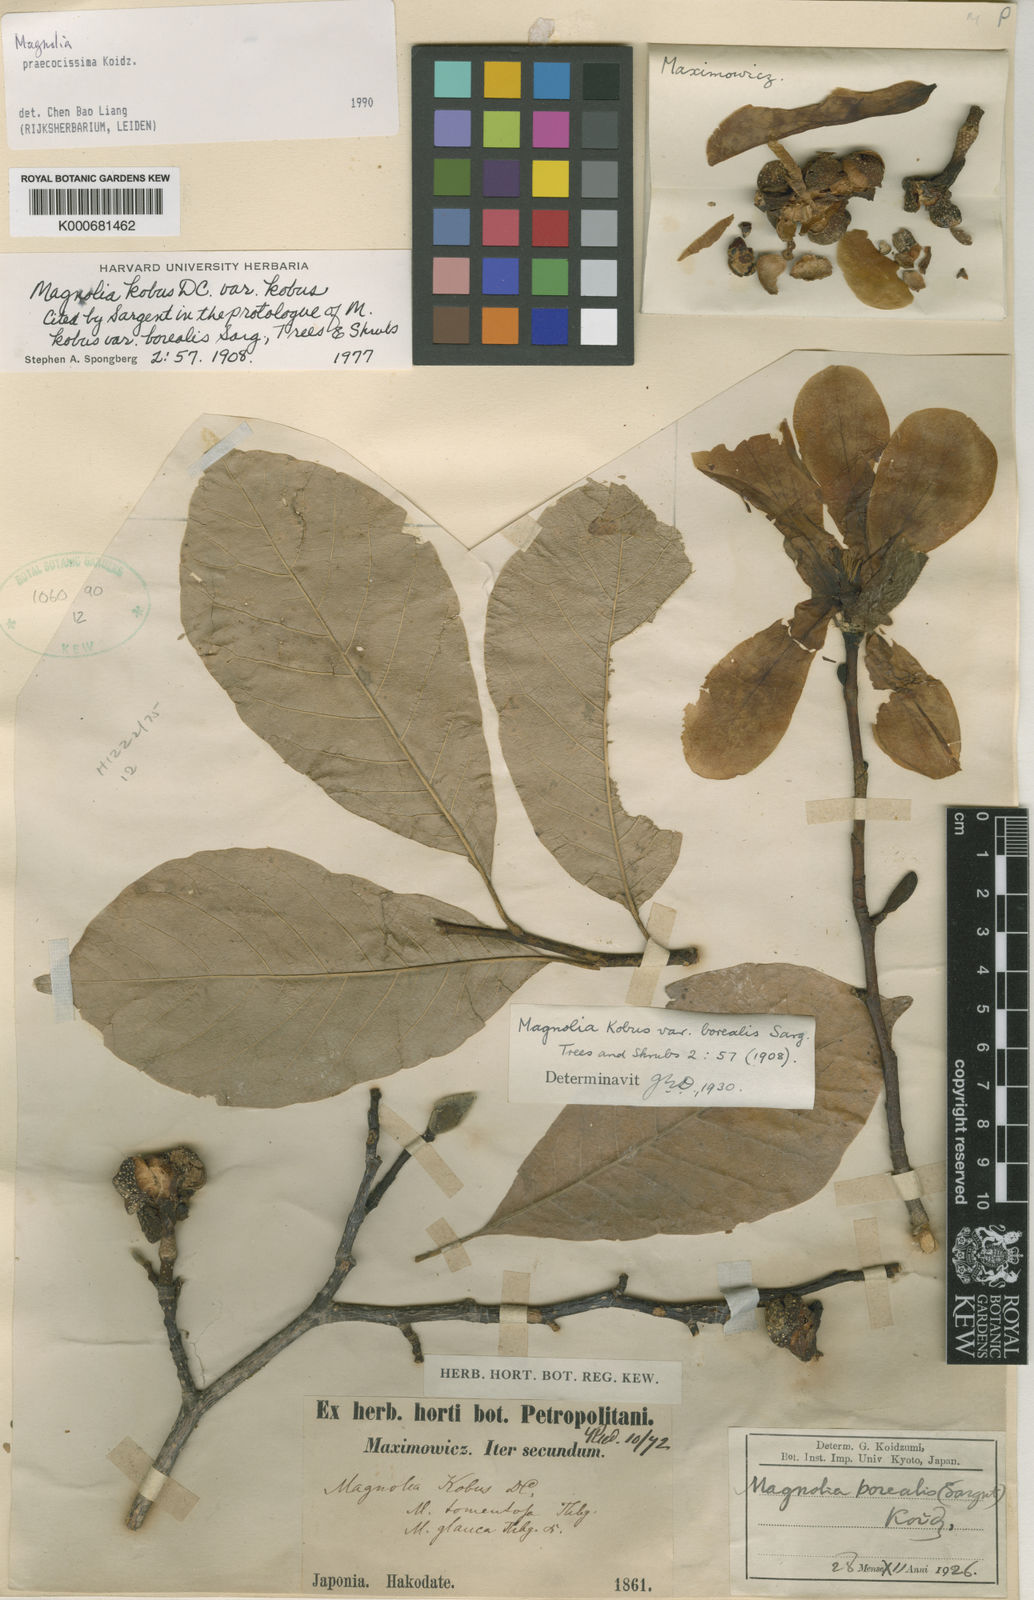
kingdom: Plantae
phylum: Tracheophyta
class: Magnoliopsida
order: Magnoliales
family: Magnoliaceae
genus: Magnolia
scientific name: Magnolia kobus
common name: Kobus magnolia
